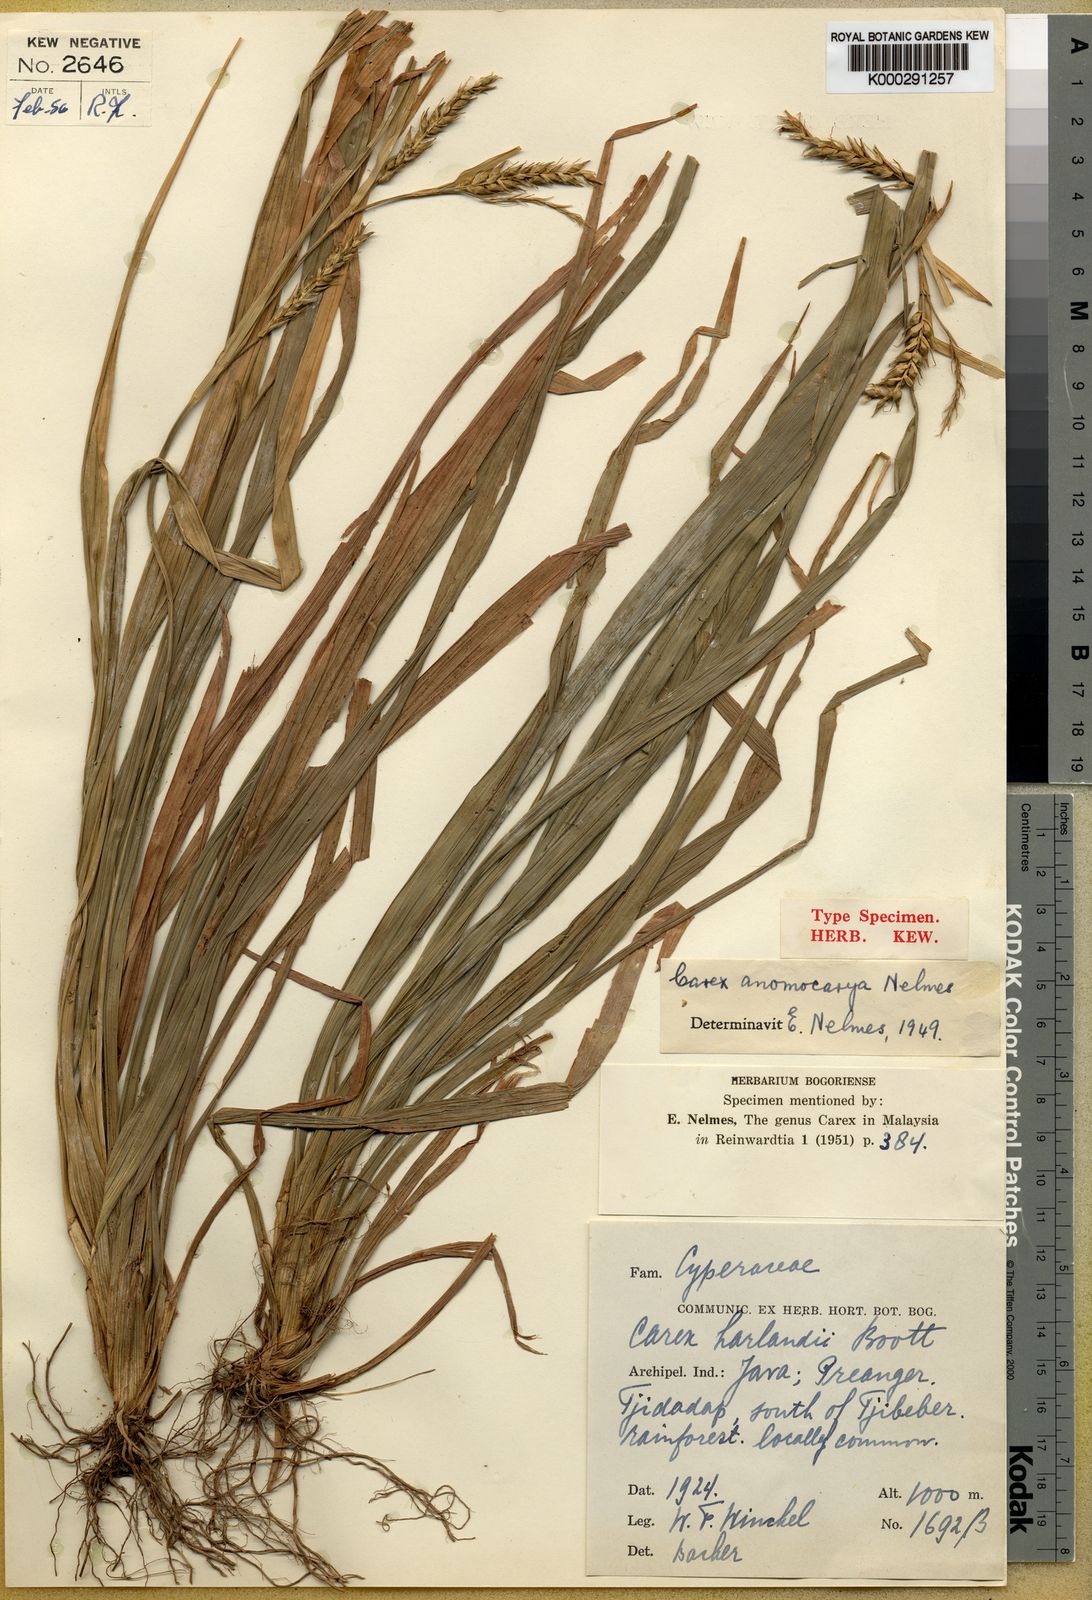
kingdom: Plantae
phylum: Tracheophyta
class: Liliopsida
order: Poales
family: Cyperaceae
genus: Carex
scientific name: Carex harlandii
